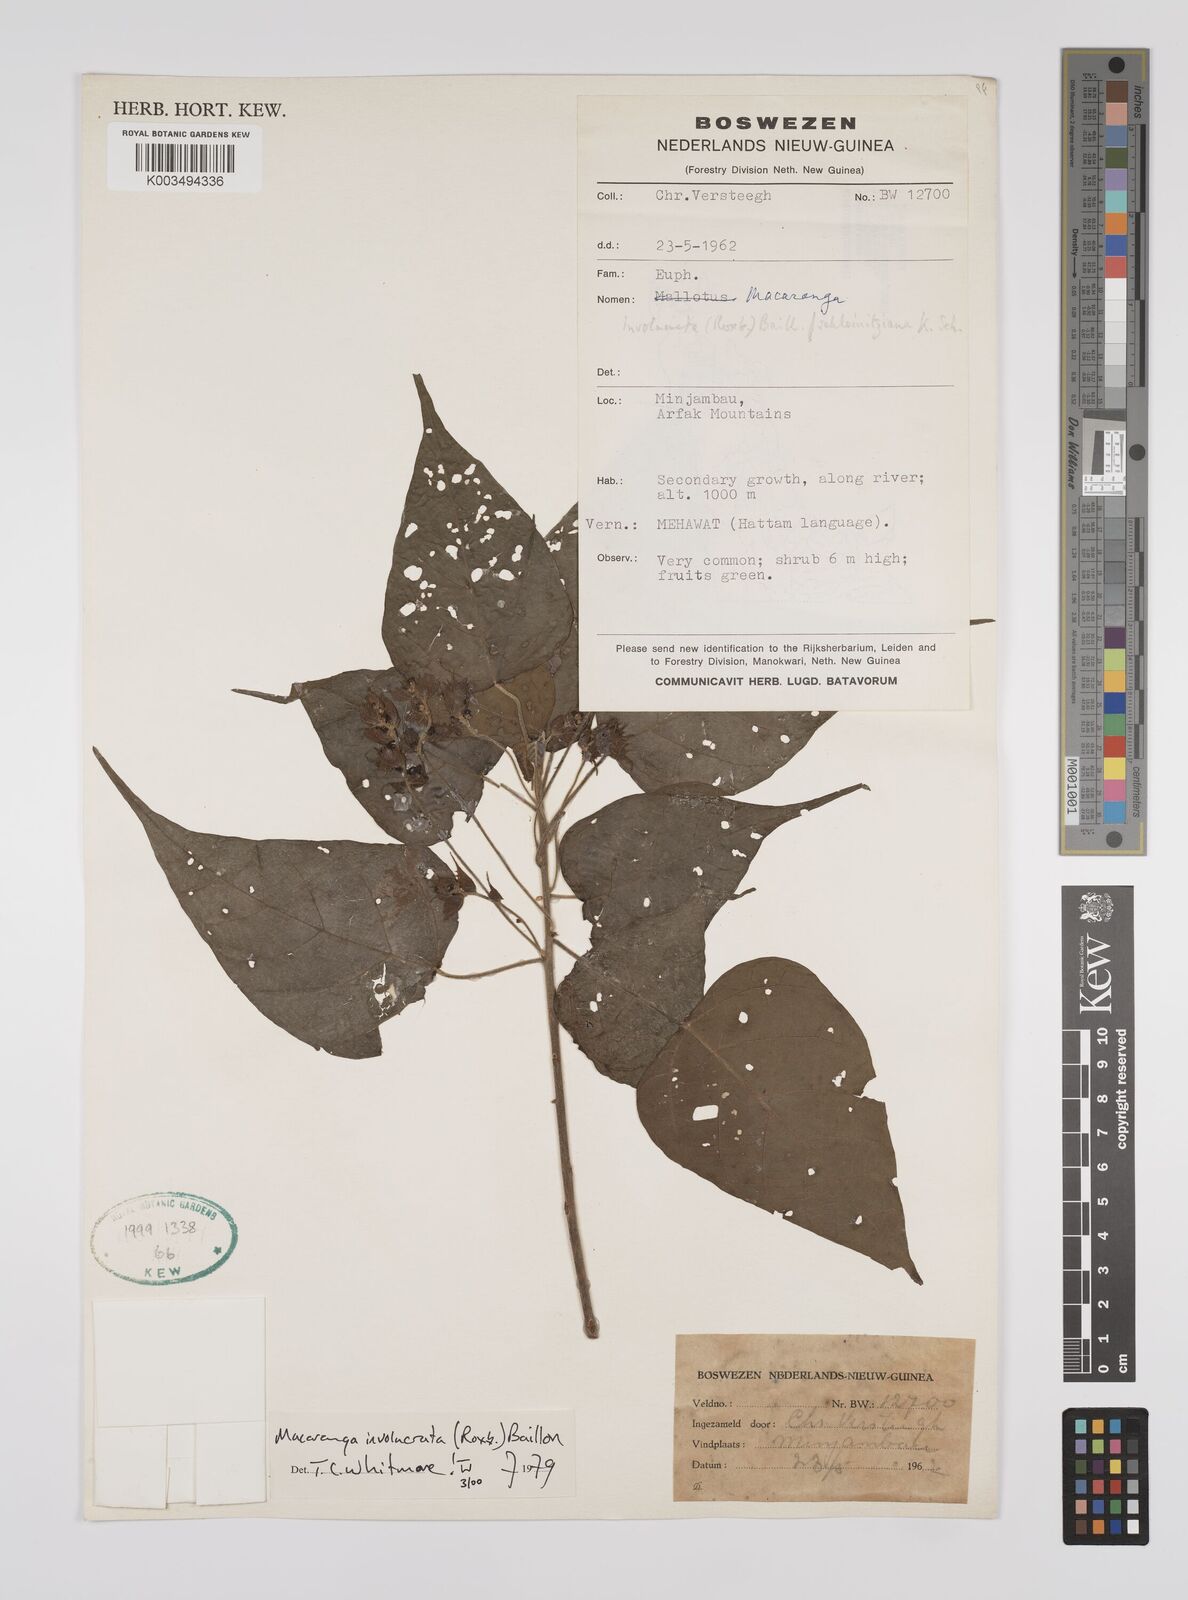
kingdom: Plantae
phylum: Tracheophyta
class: Magnoliopsida
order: Malpighiales
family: Euphorbiaceae
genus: Macaranga
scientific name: Macaranga involucrata
